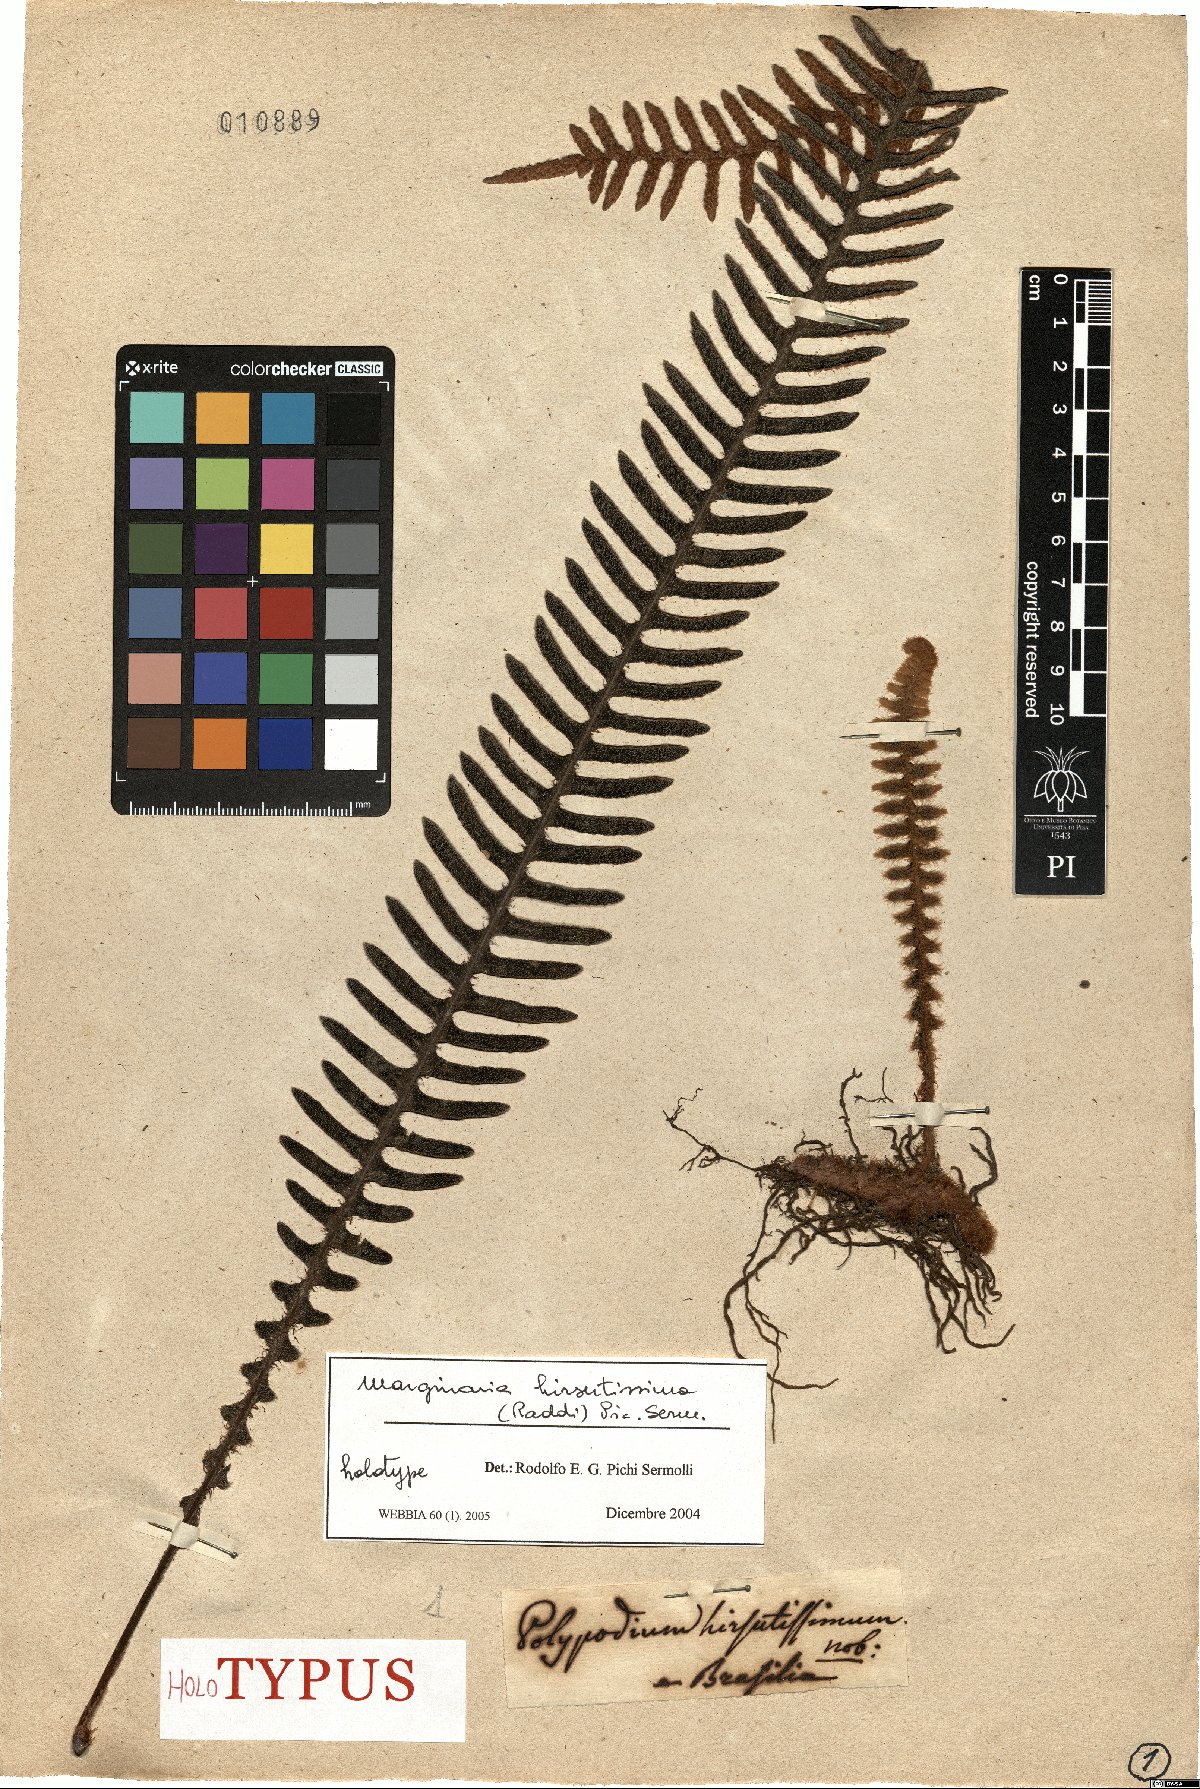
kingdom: Plantae
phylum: Tracheophyta
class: Polypodiopsida
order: Polypodiales
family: Polypodiaceae
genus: Pleopeltis
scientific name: Pleopeltis hirsutissima
